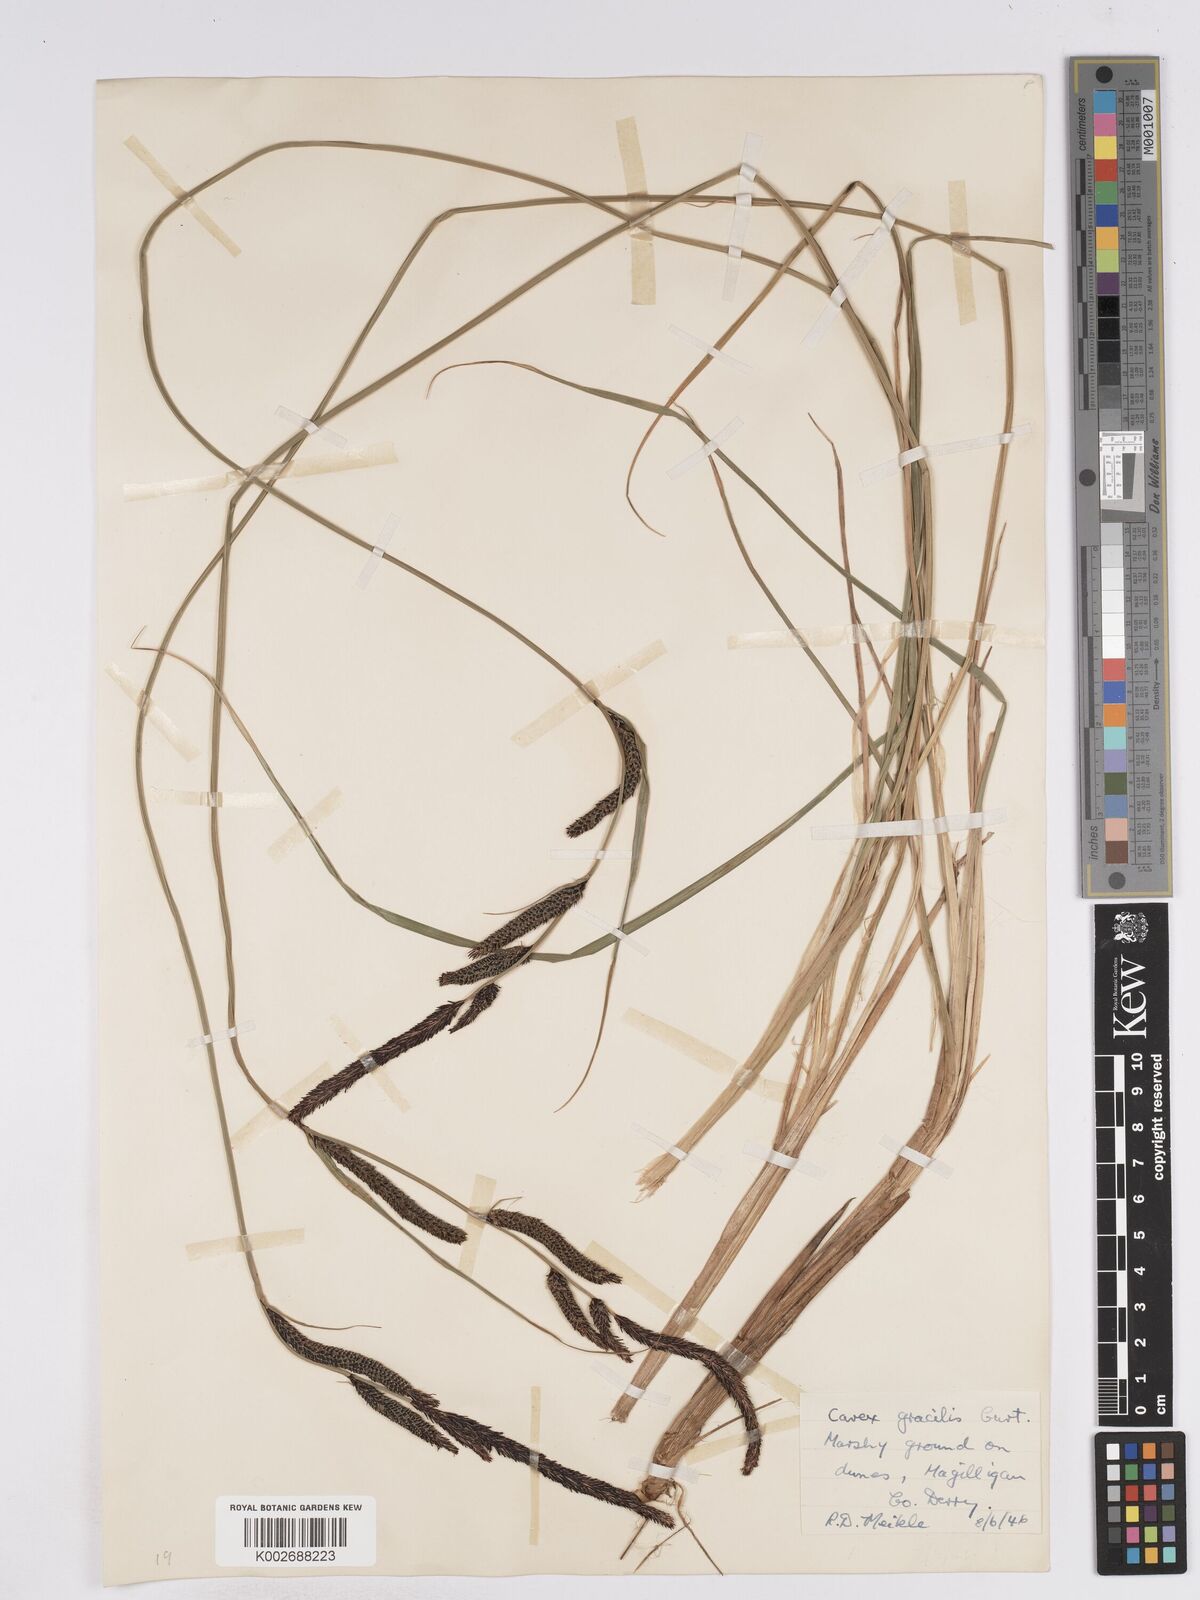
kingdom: Plantae
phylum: Tracheophyta
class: Liliopsida
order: Poales
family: Cyperaceae
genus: Carex
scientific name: Carex elata
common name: Tufted sedge
